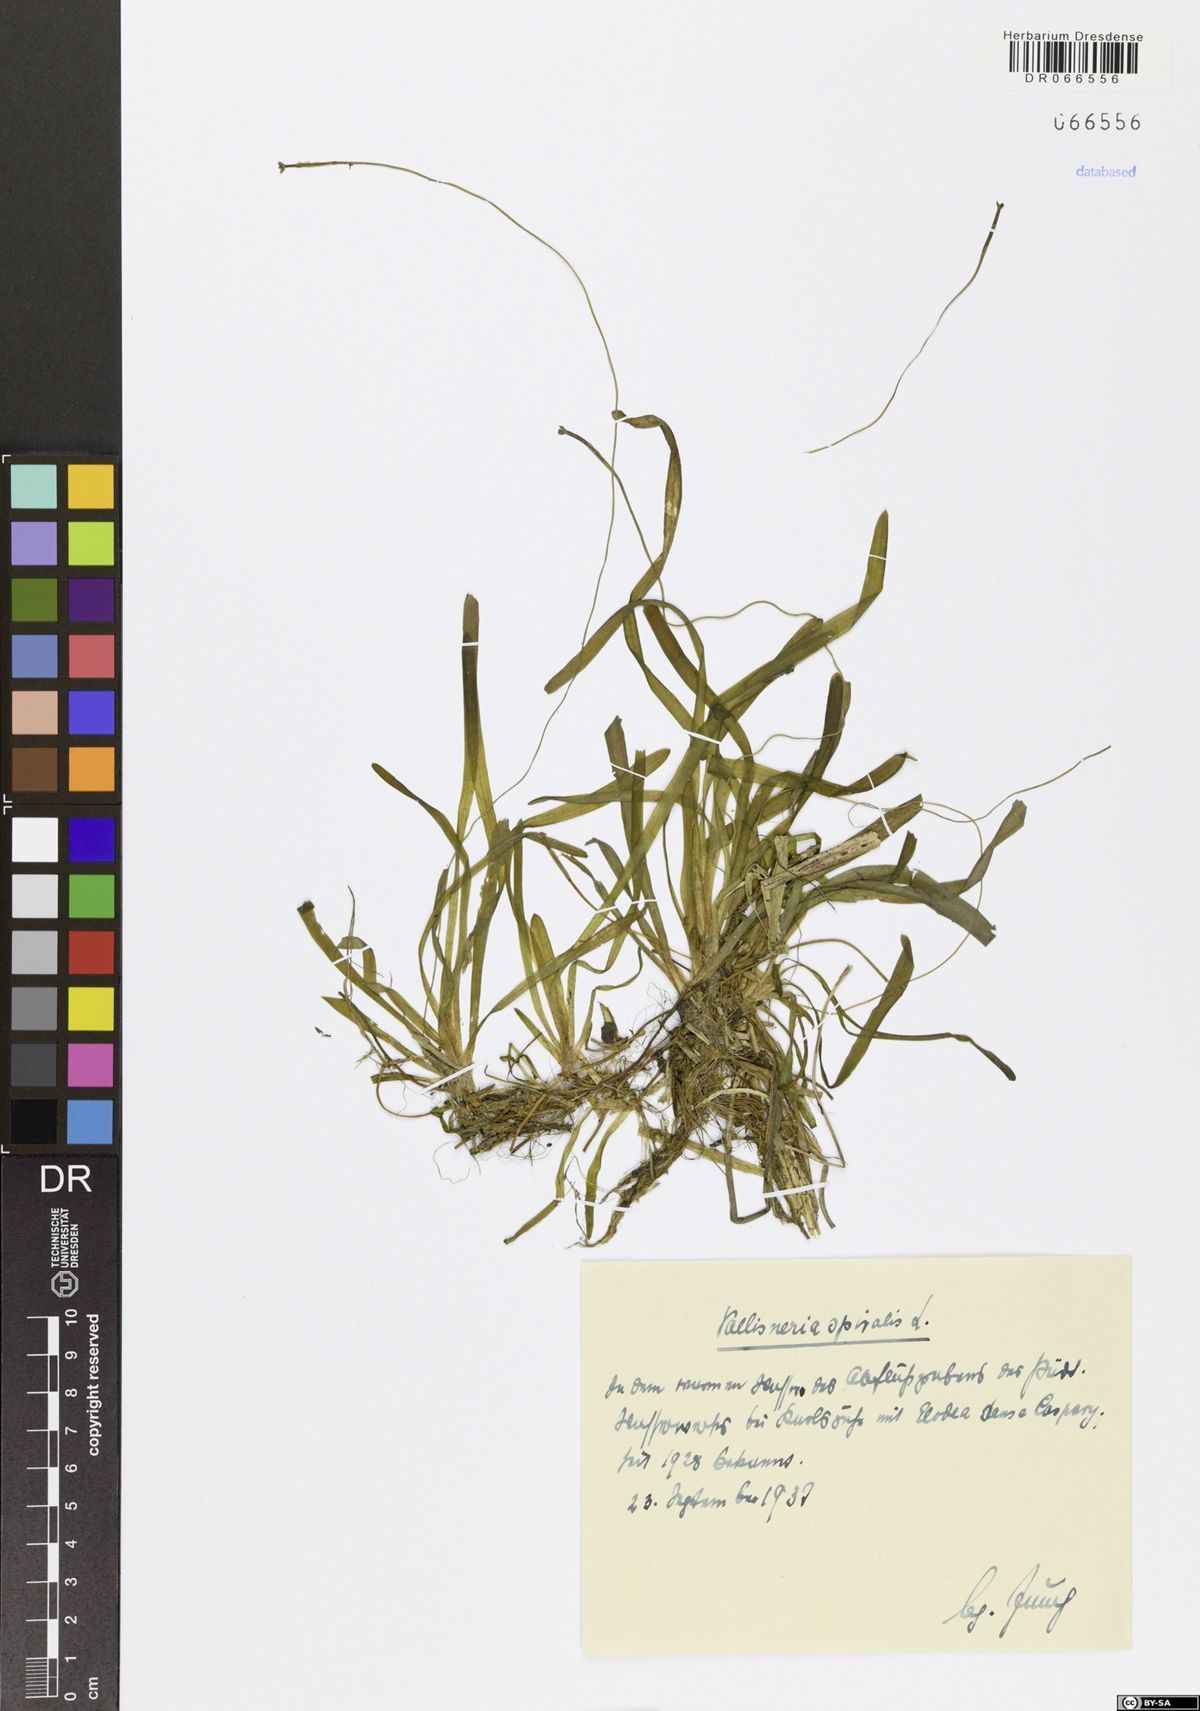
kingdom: Plantae
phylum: Tracheophyta
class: Liliopsida
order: Alismatales
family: Hydrocharitaceae
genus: Vallisneria
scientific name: Vallisneria spiralis
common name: Tapegrass
